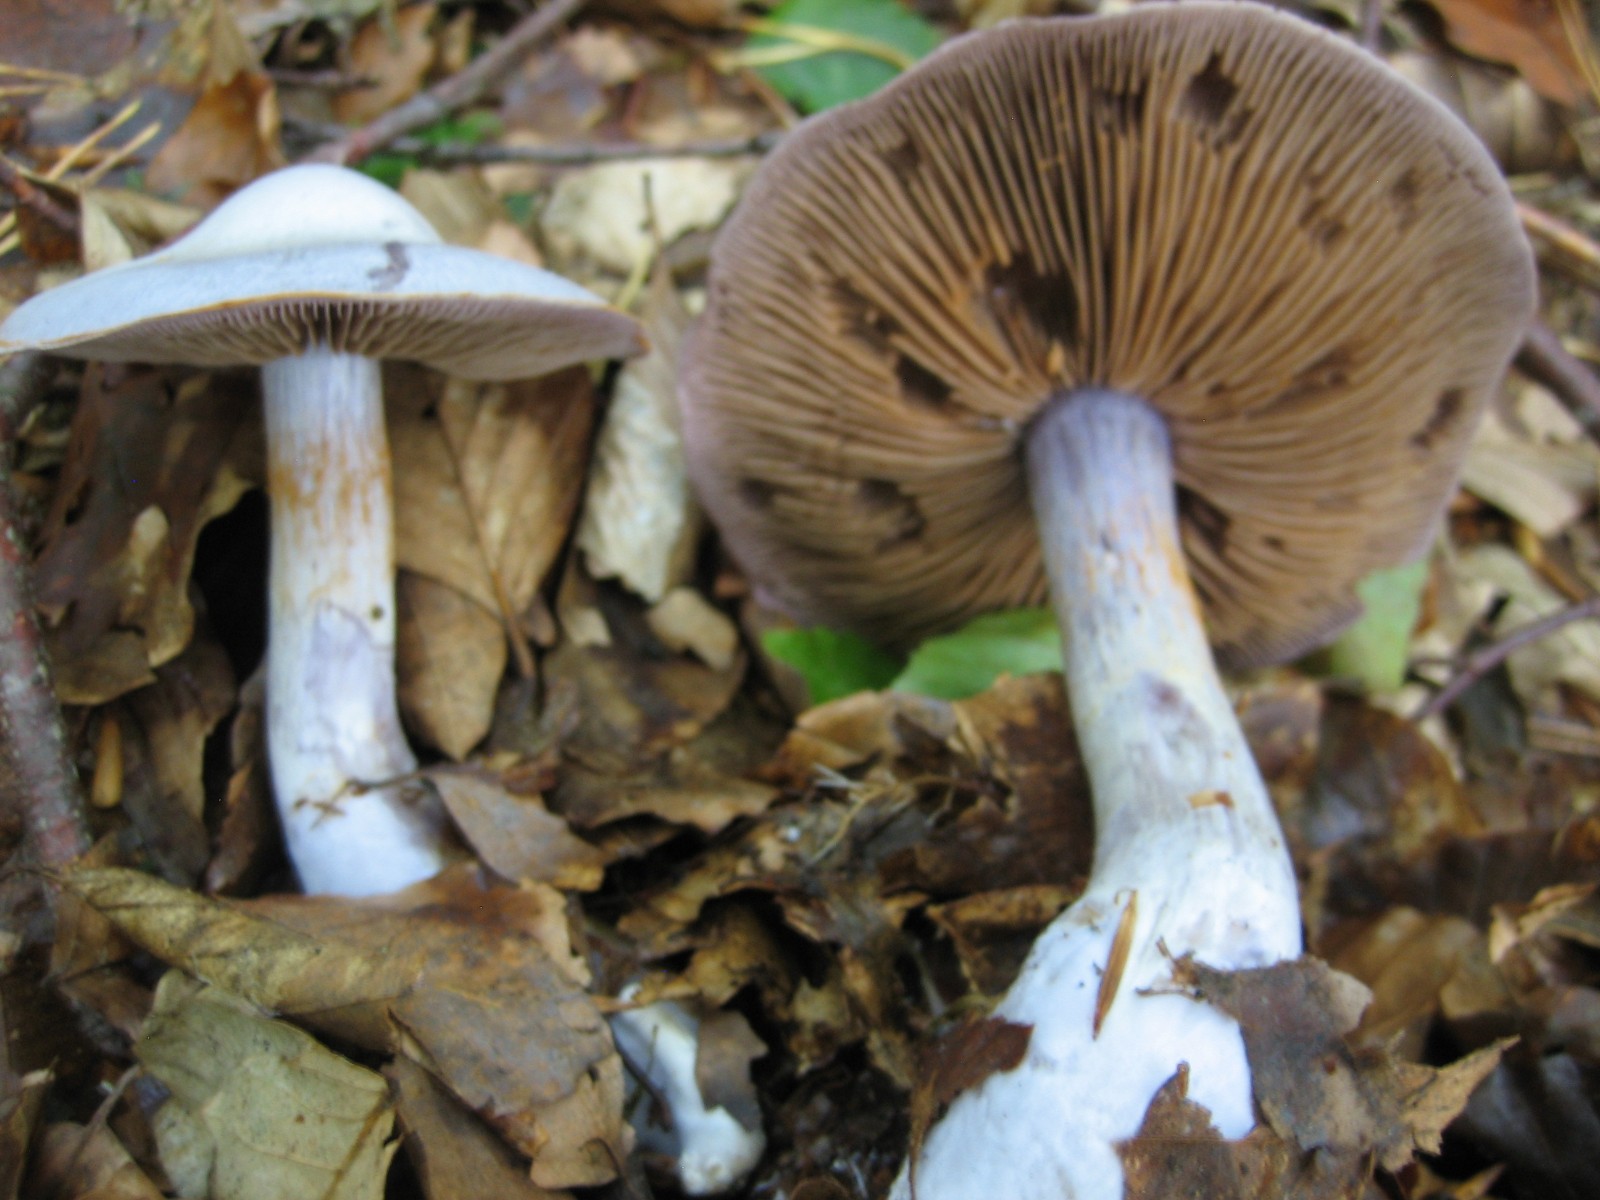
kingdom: Fungi
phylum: Basidiomycota
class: Agaricomycetes
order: Agaricales
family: Cortinariaceae
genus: Cortinarius
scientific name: Cortinarius alboviolaceus
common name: lysviolet slørhat
